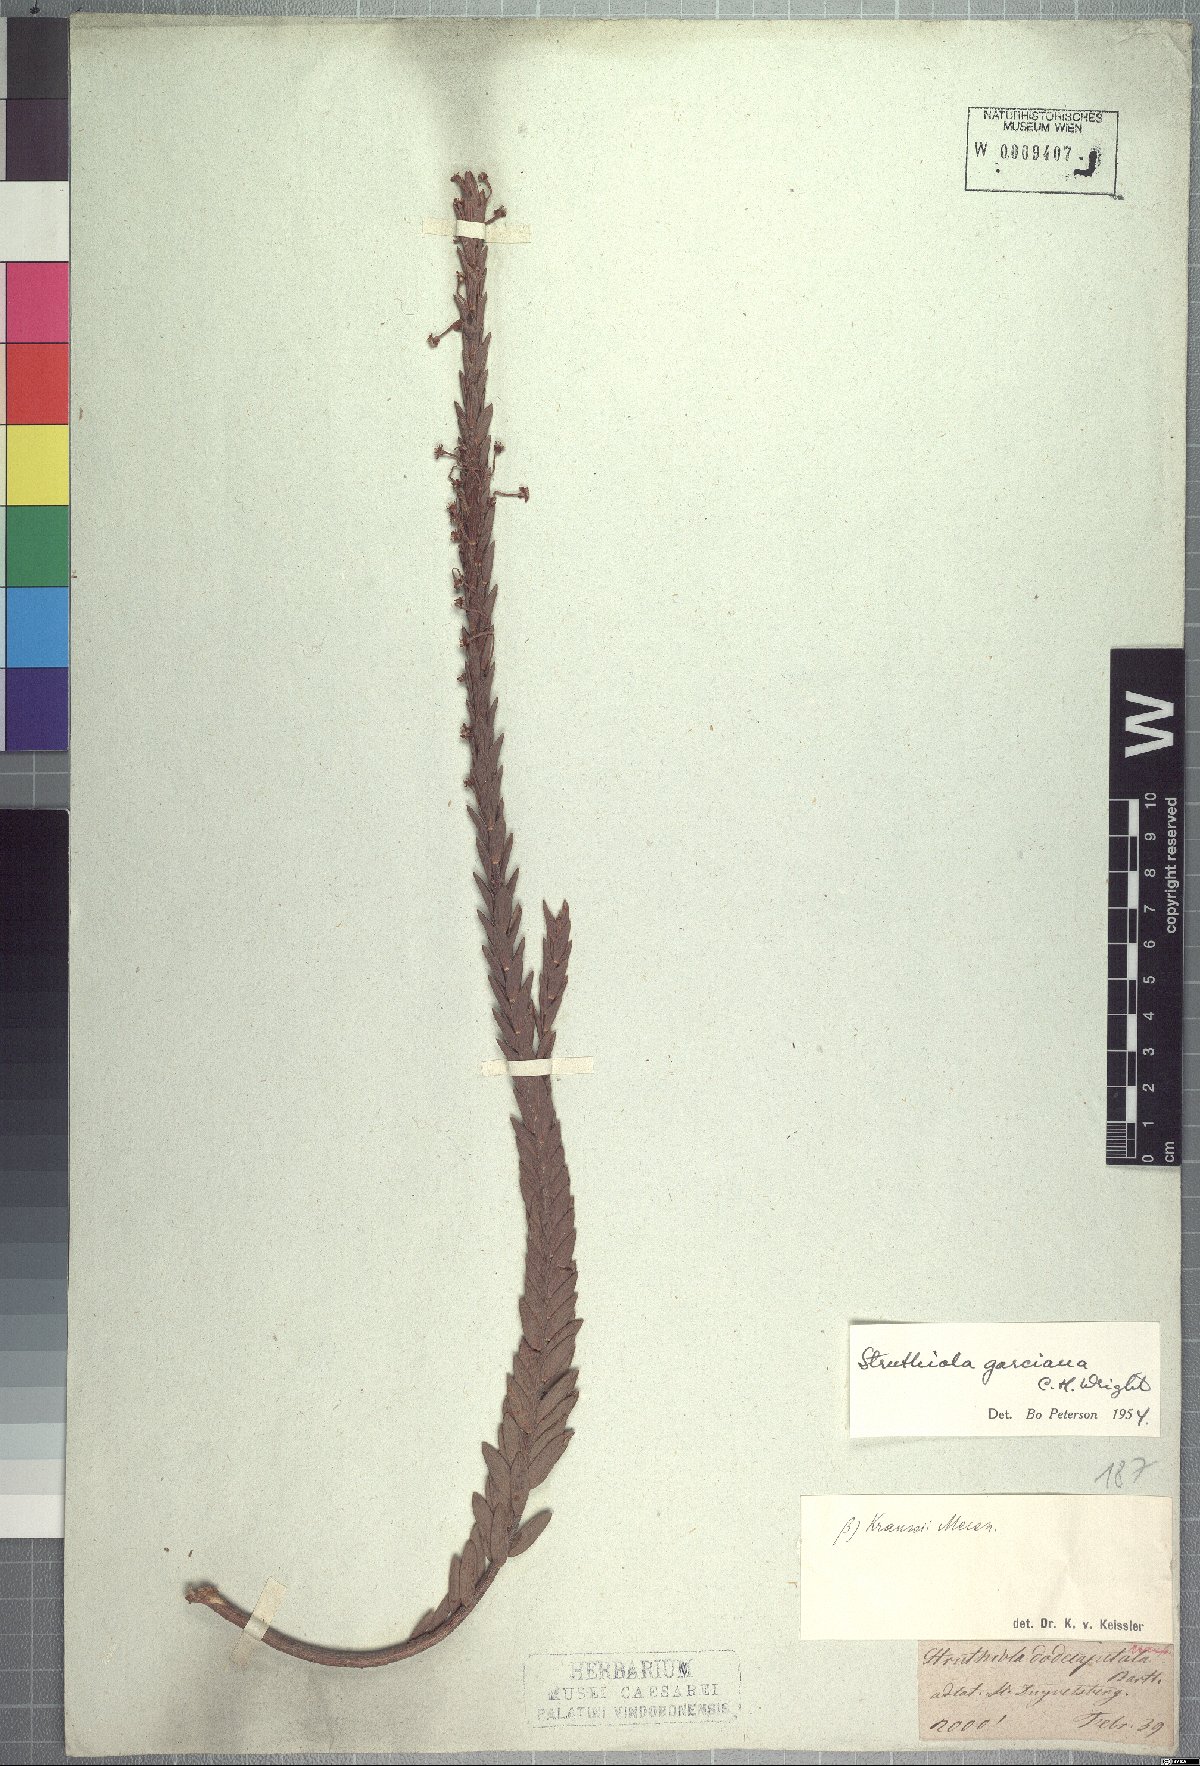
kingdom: Plantae
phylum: Tracheophyta
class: Magnoliopsida
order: Malvales
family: Thymelaeaceae
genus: Struthiola
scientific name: Struthiola garciana
